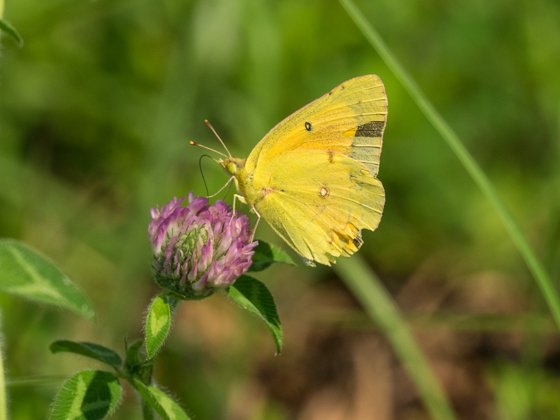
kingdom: Animalia
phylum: Arthropoda
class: Insecta
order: Lepidoptera
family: Pieridae
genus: Colias
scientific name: Colias eurytheme
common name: Orange Sulphur
